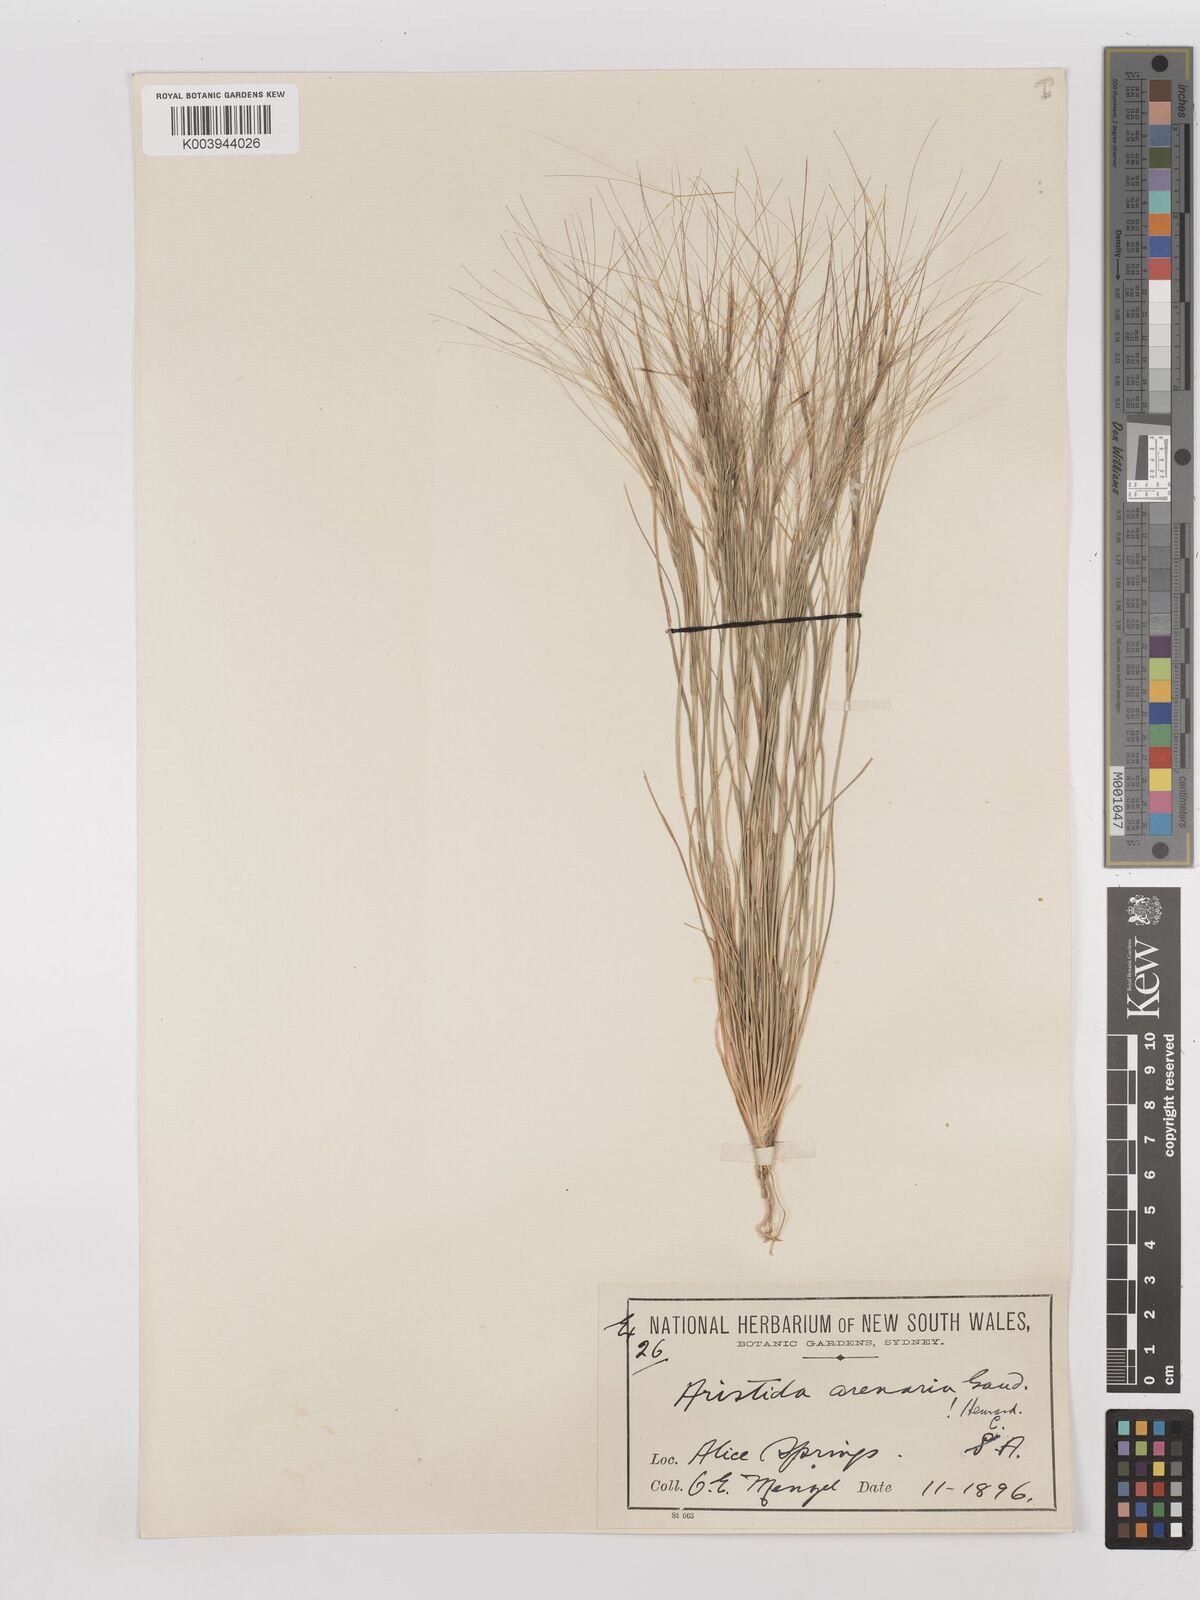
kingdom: Plantae
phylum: Tracheophyta
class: Liliopsida
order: Poales
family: Poaceae
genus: Aristida
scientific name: Aristida contorta
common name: Bunch kerosene grass
